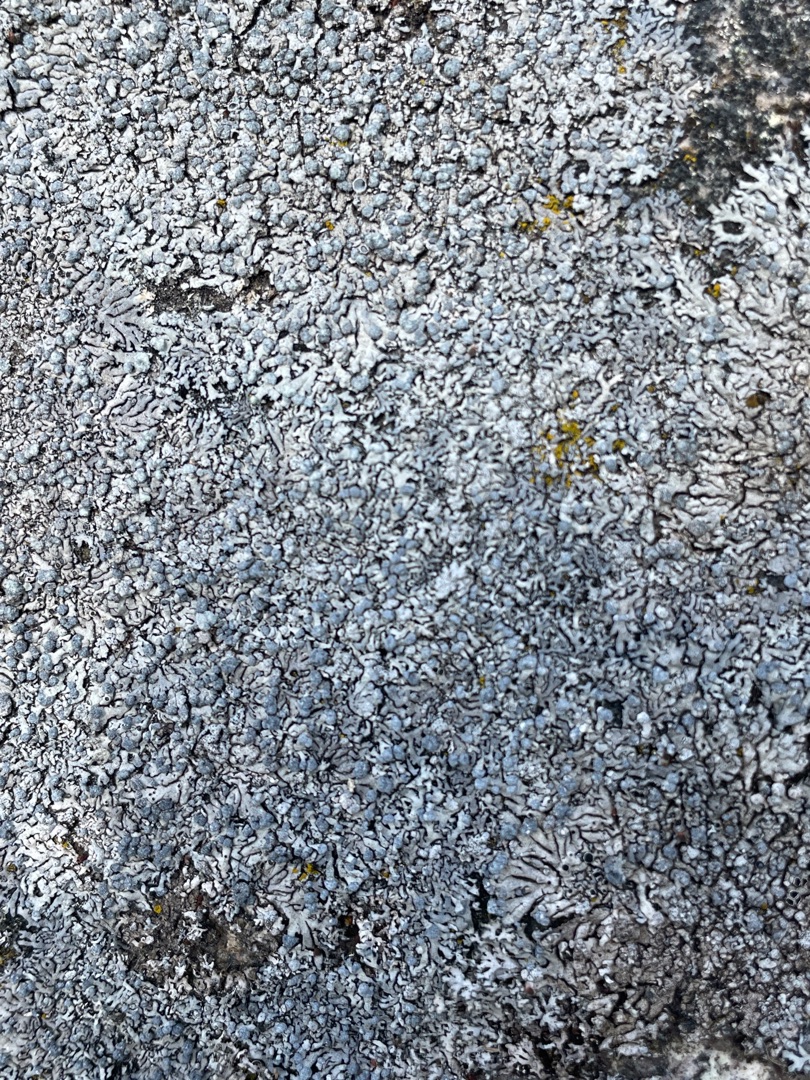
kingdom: Fungi
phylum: Ascomycota
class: Lecanoromycetes
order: Caliciales
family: Physciaceae
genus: Physcia
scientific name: Physcia caesia
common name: Blågrå rosetlav
